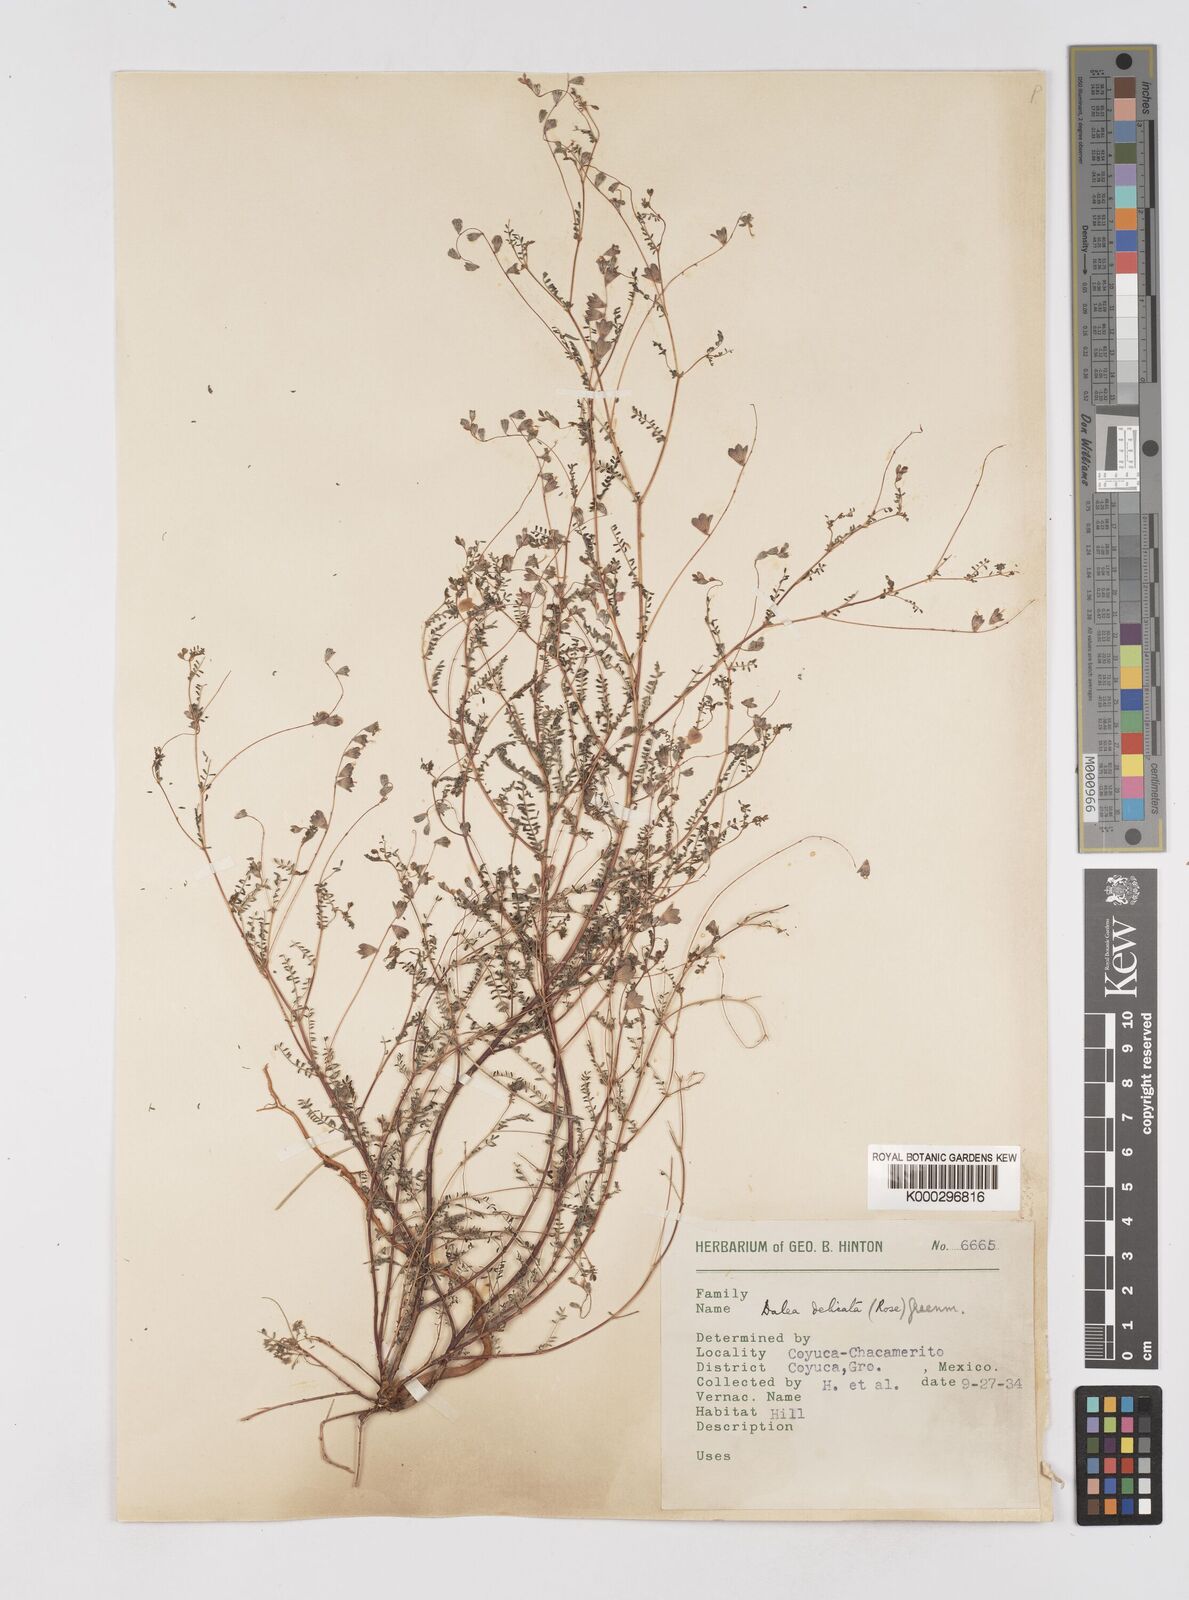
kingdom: Plantae
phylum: Tracheophyta
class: Magnoliopsida
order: Fabales
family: Fabaceae
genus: Marina
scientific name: Marina gracilis
